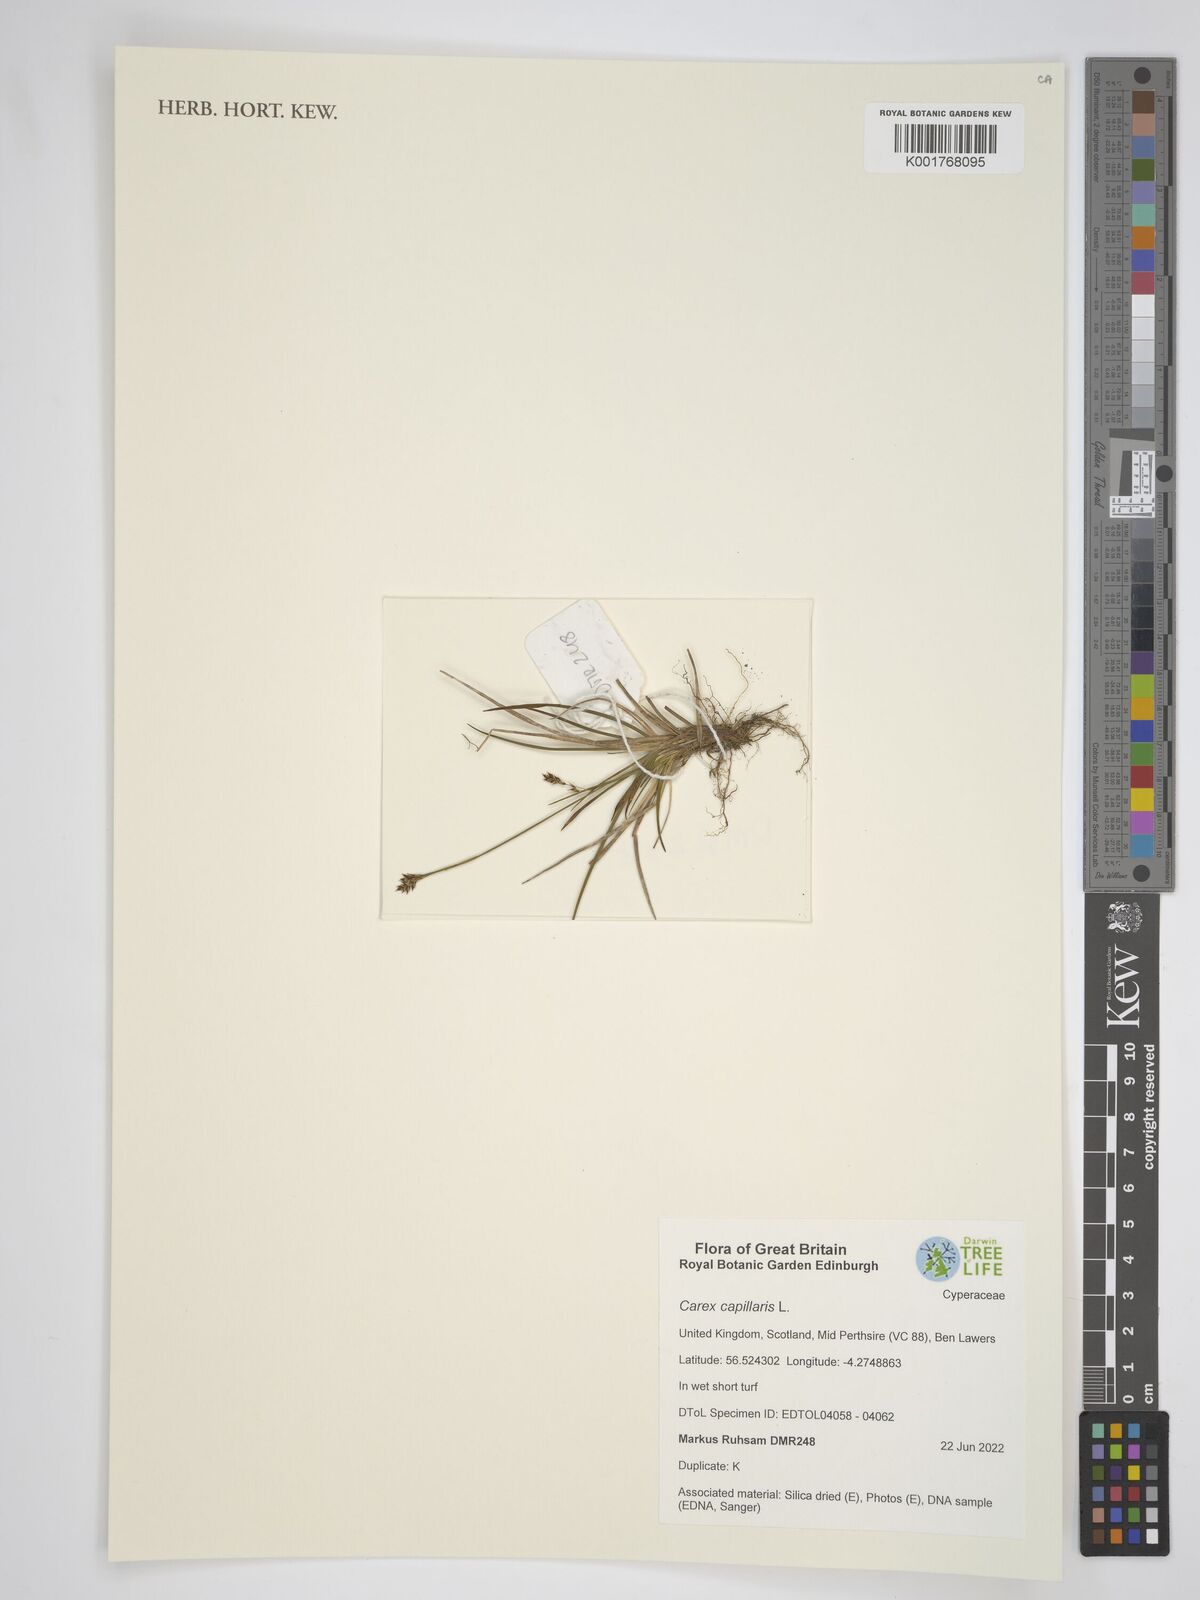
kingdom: Plantae
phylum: Tracheophyta
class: Liliopsida
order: Poales
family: Cyperaceae
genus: Carex
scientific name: Carex capillaris
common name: Hair sedge
